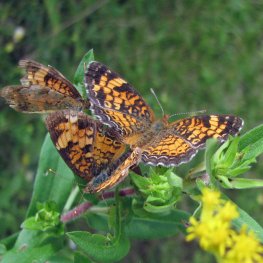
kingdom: Animalia
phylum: Arthropoda
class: Insecta
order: Lepidoptera
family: Nymphalidae
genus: Phyciodes
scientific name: Phyciodes tharos
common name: Northern Crescent
